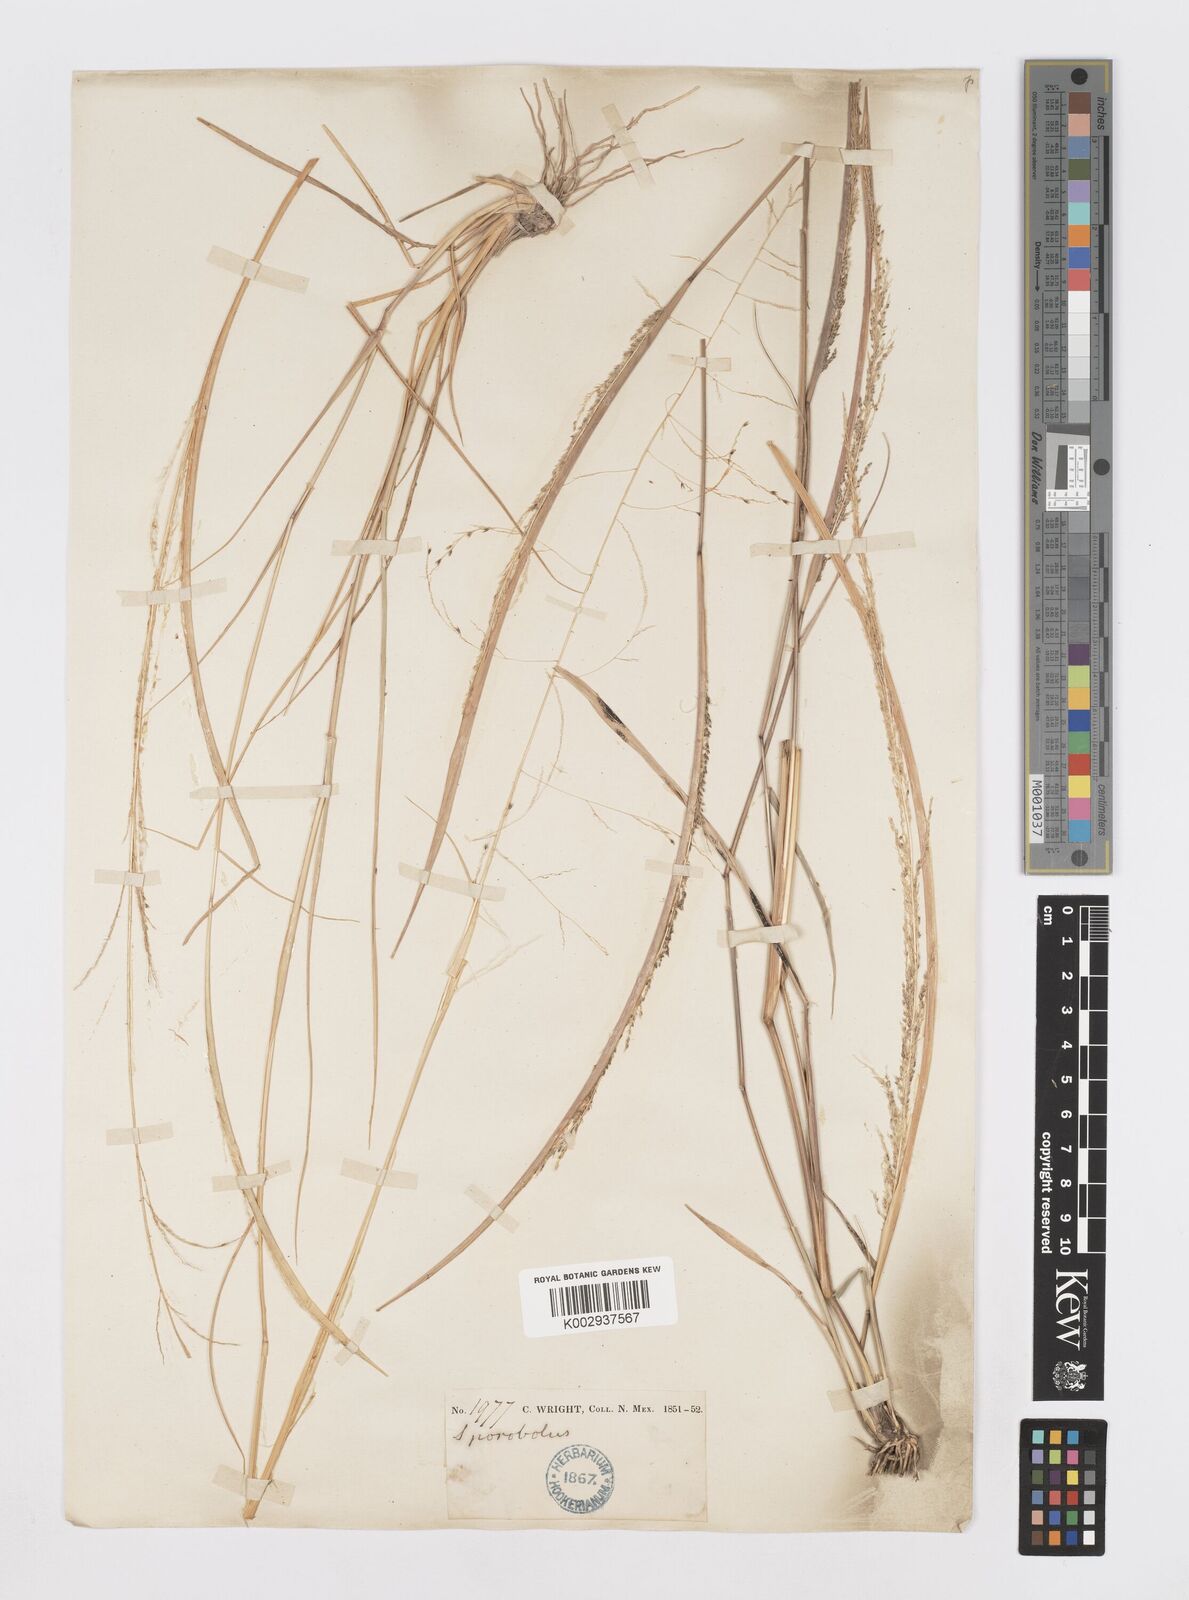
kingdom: Plantae
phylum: Tracheophyta
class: Liliopsida
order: Poales
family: Poaceae
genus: Sporobolus
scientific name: Sporobolus
